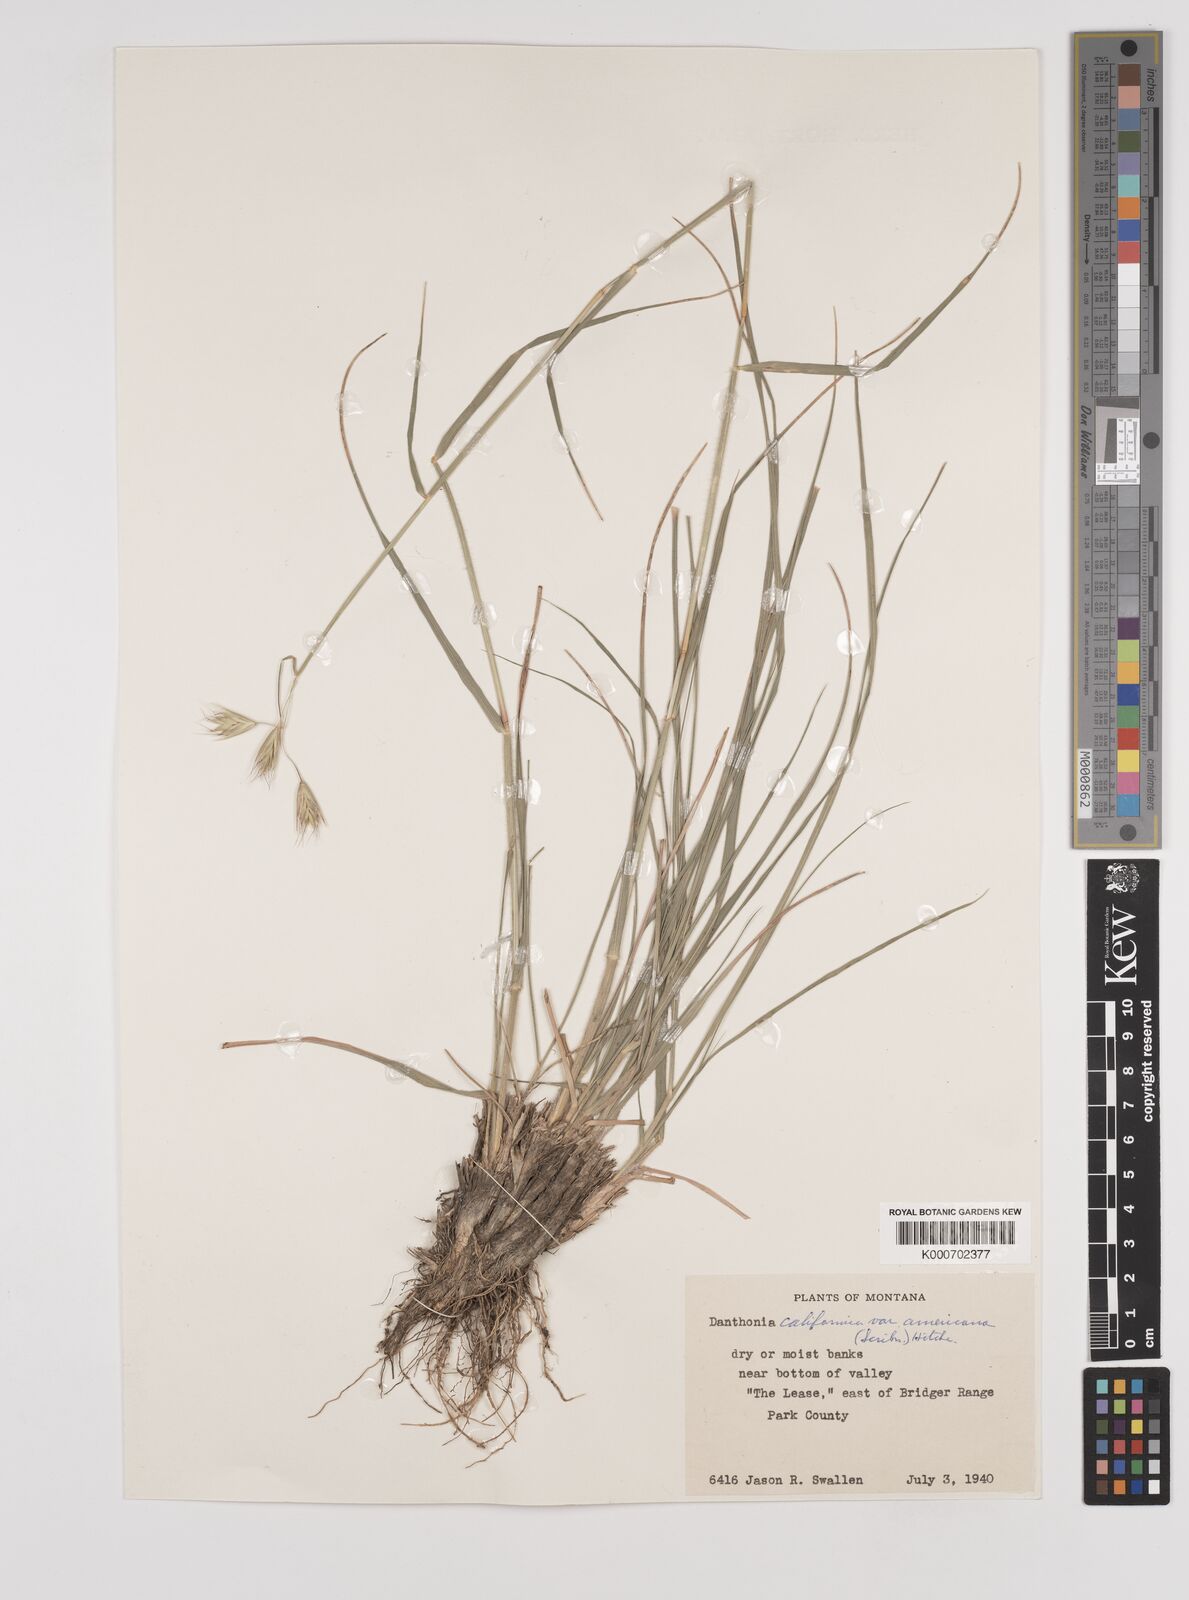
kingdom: Plantae
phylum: Tracheophyta
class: Liliopsida
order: Poales
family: Poaceae
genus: Danthonia
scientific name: Danthonia californica
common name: California oat grass
